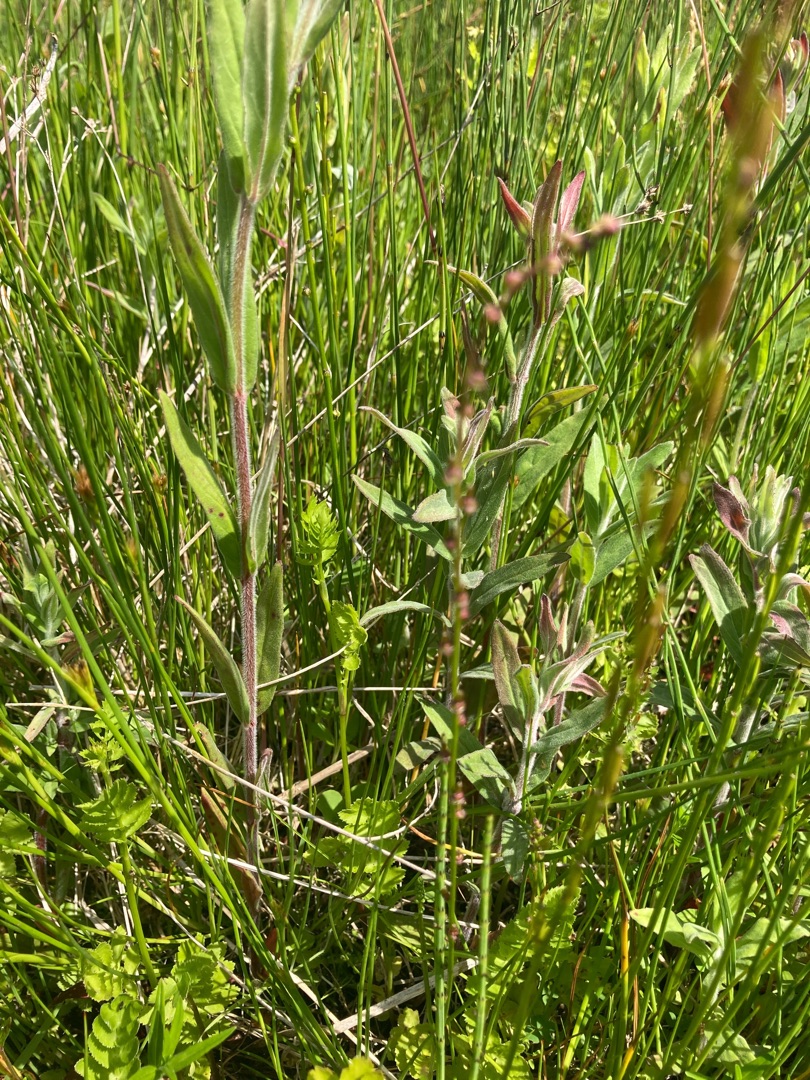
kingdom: Plantae
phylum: Tracheophyta
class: Liliopsida
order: Alismatales
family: Juncaginaceae
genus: Triglochin
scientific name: Triglochin palustris
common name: Kær-trehage
